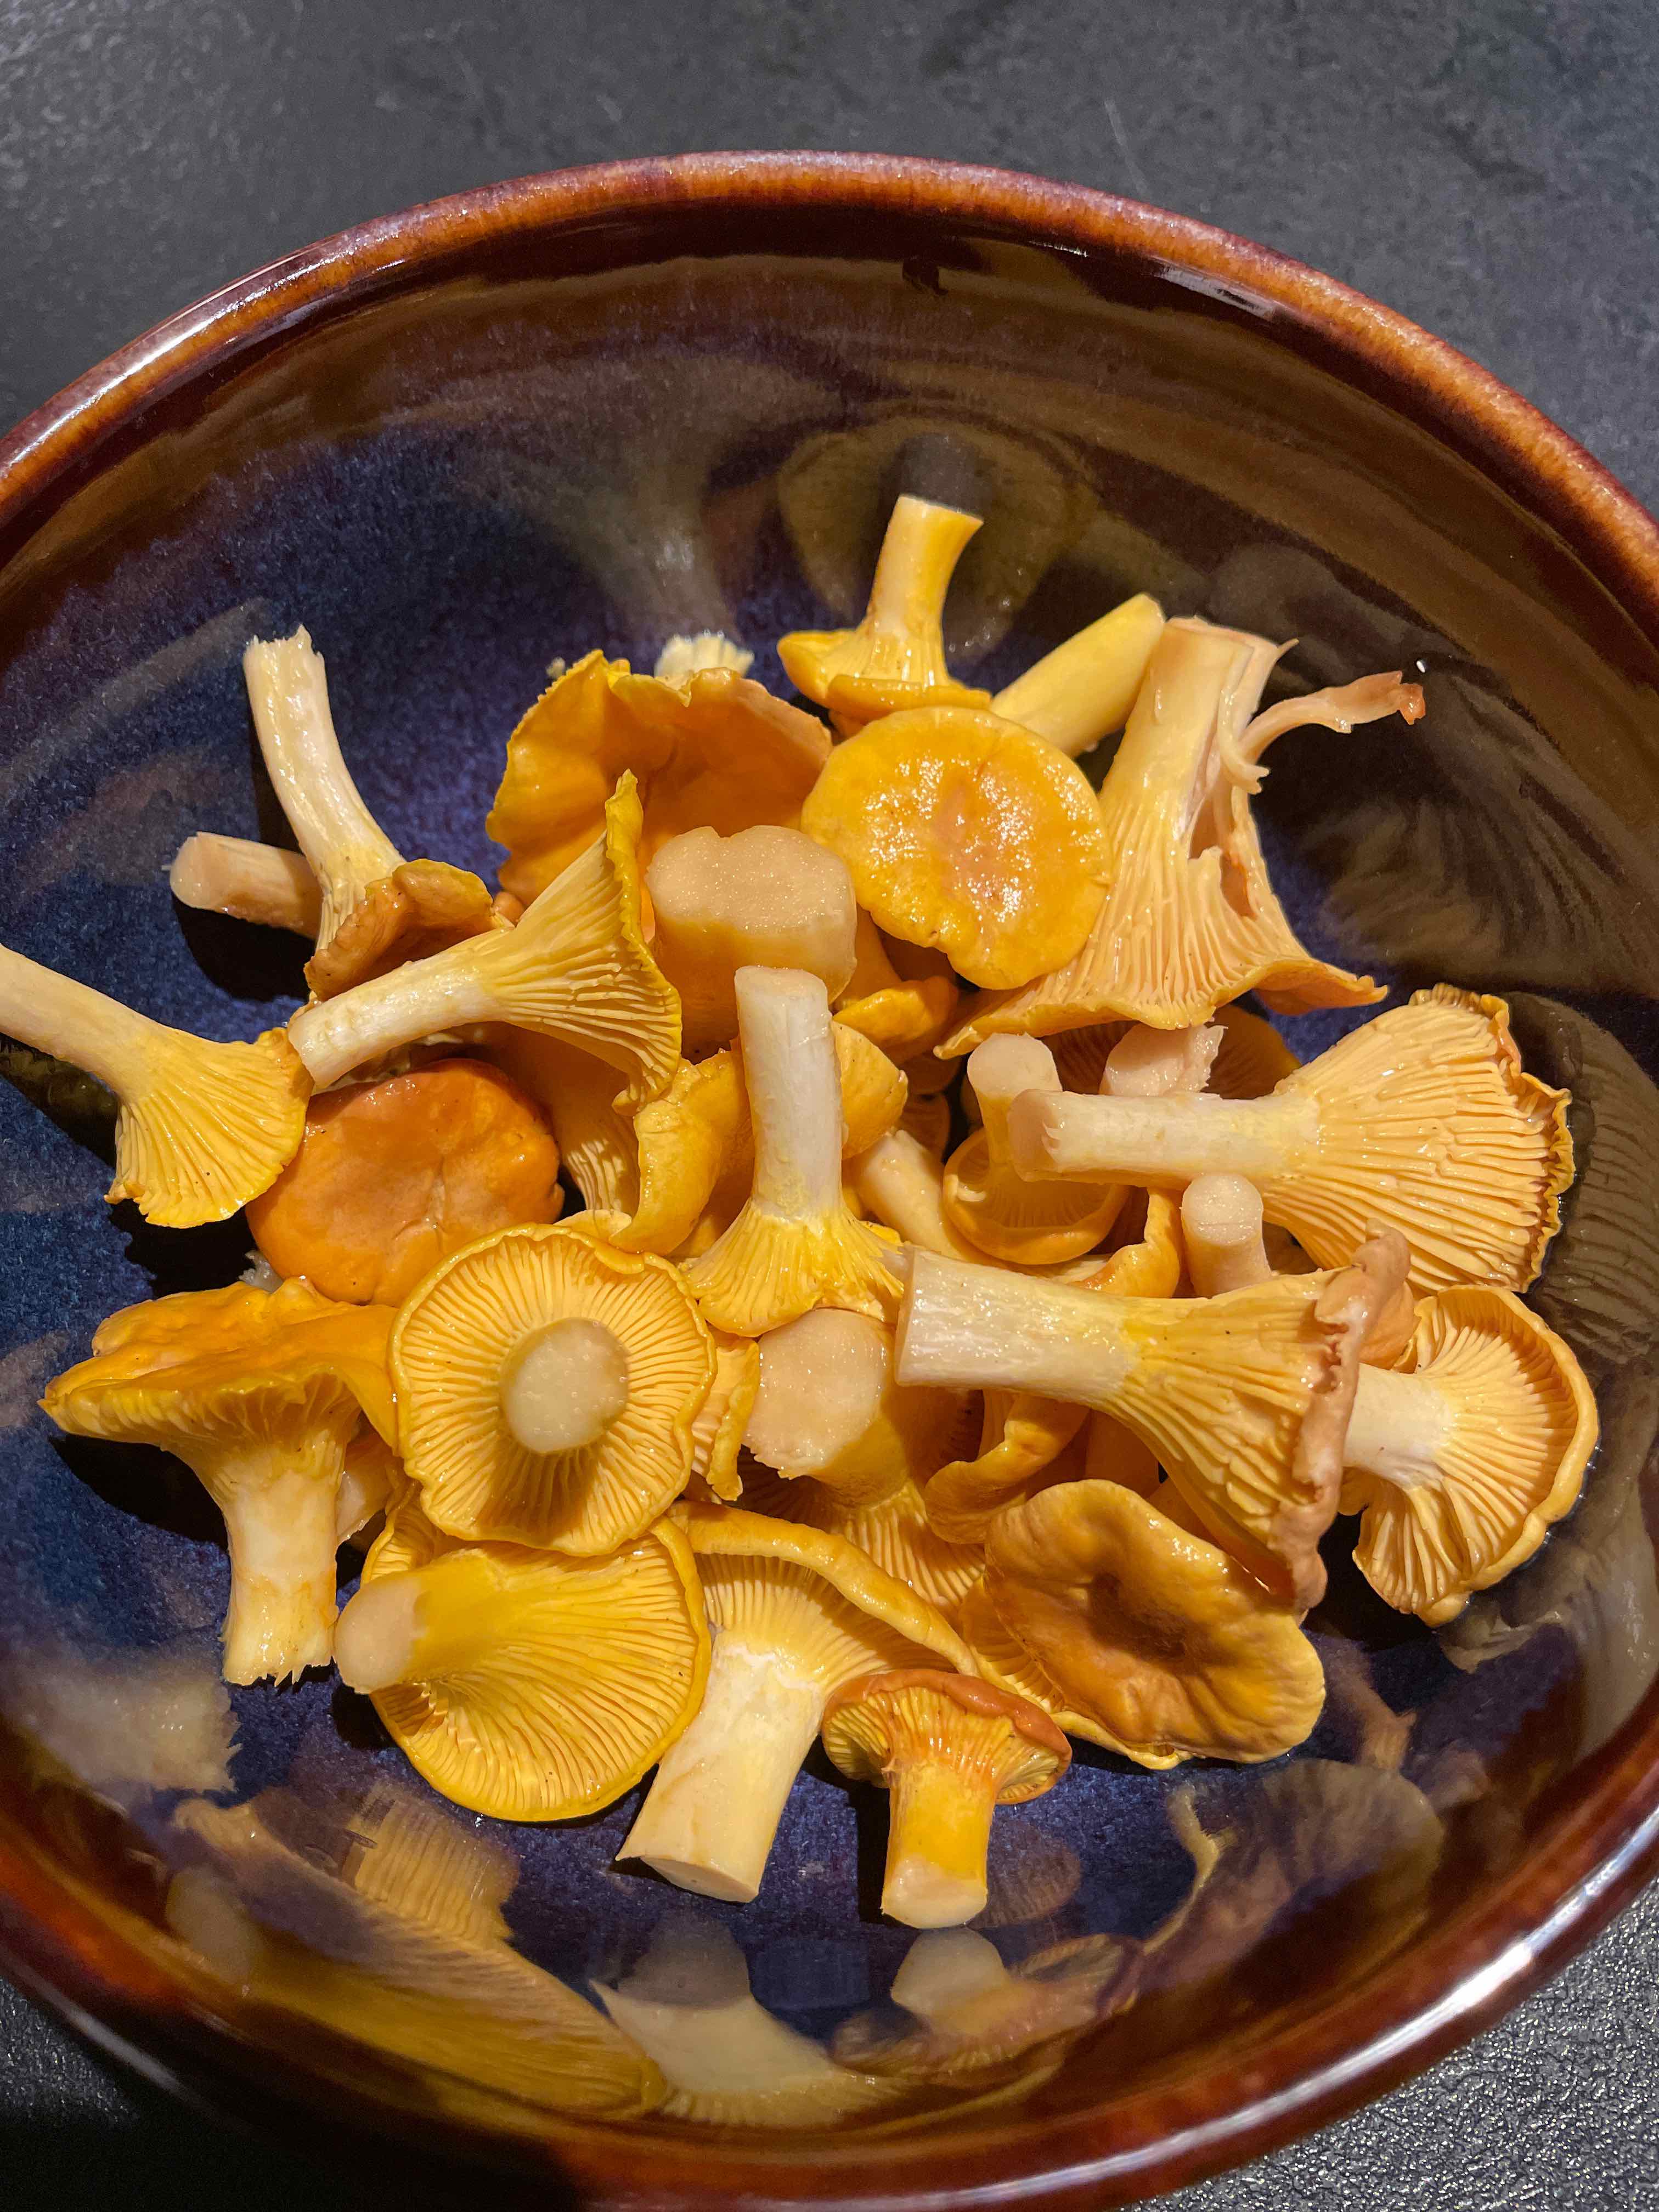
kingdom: Fungi
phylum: Basidiomycota
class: Agaricomycetes
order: Cantharellales
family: Hydnaceae
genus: Cantharellus
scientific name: Cantharellus cibarius
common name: almindelig kantarel
